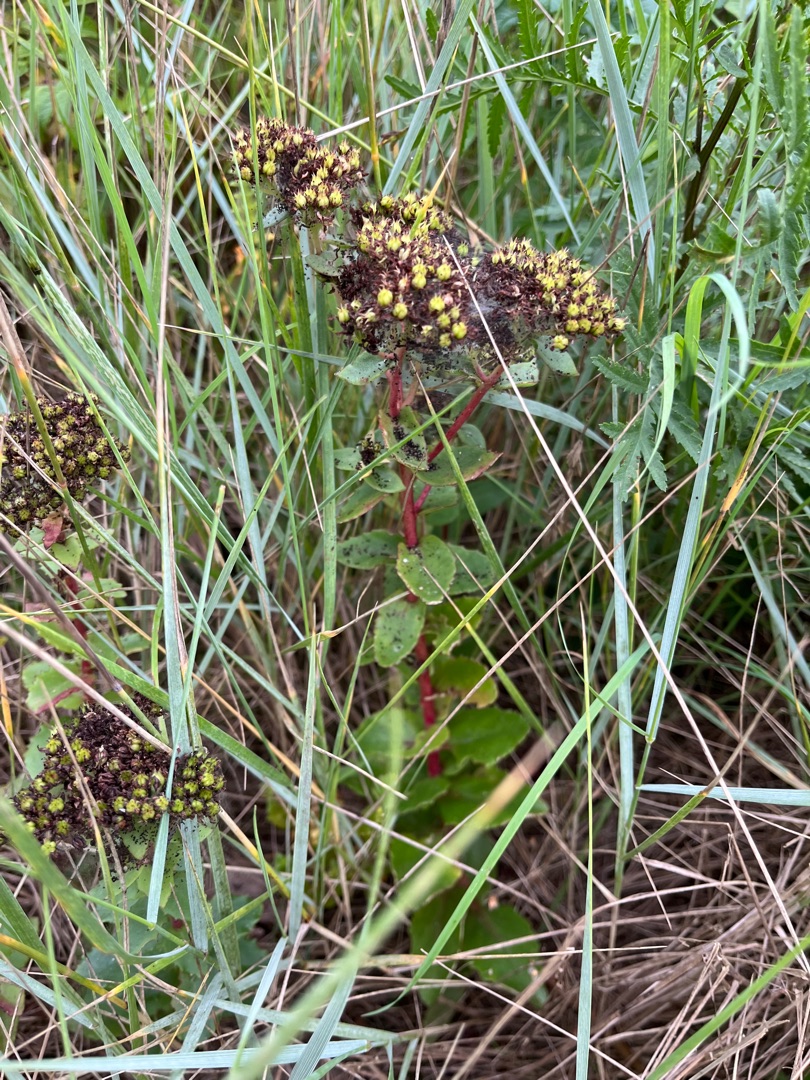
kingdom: Plantae
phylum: Tracheophyta
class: Magnoliopsida
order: Saxifragales
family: Crassulaceae
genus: Hylotelephium
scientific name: Hylotelephium telephium
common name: Sankthansurt
